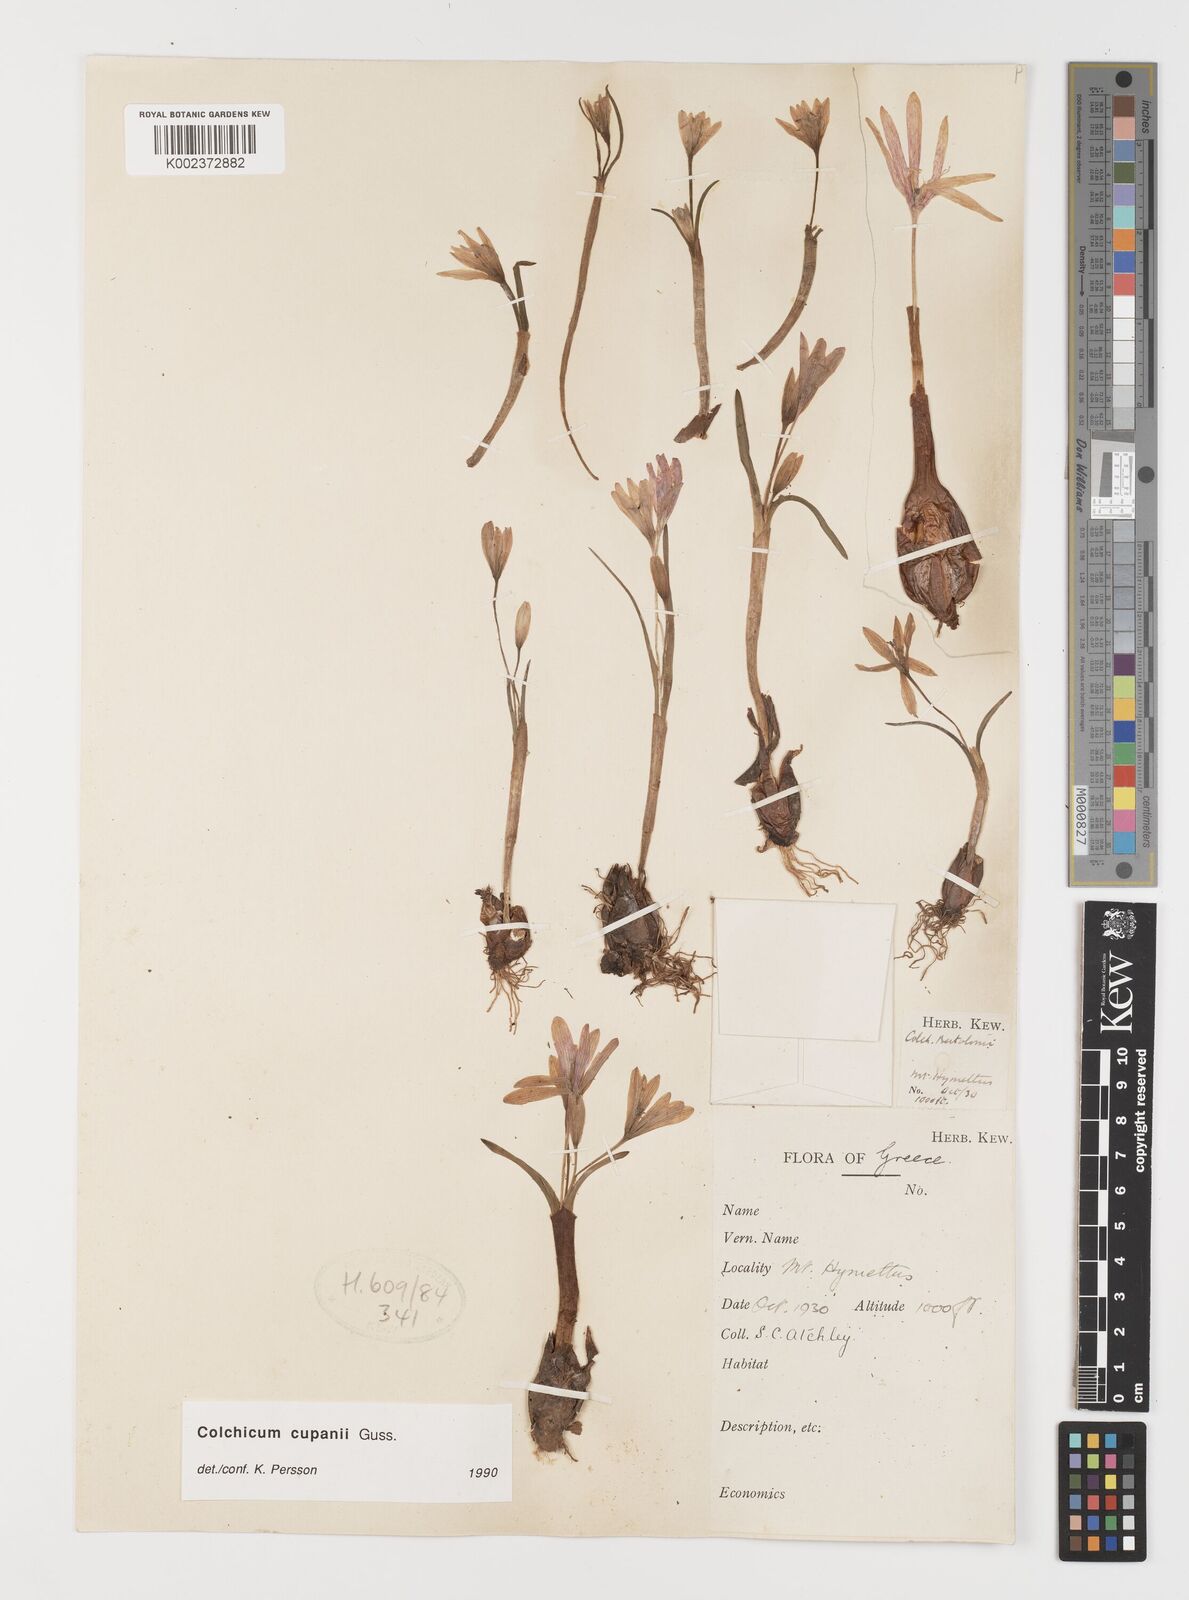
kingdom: Plantae
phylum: Tracheophyta
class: Liliopsida
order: Liliales
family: Colchicaceae
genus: Colchicum
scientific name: Colchicum cupanii
